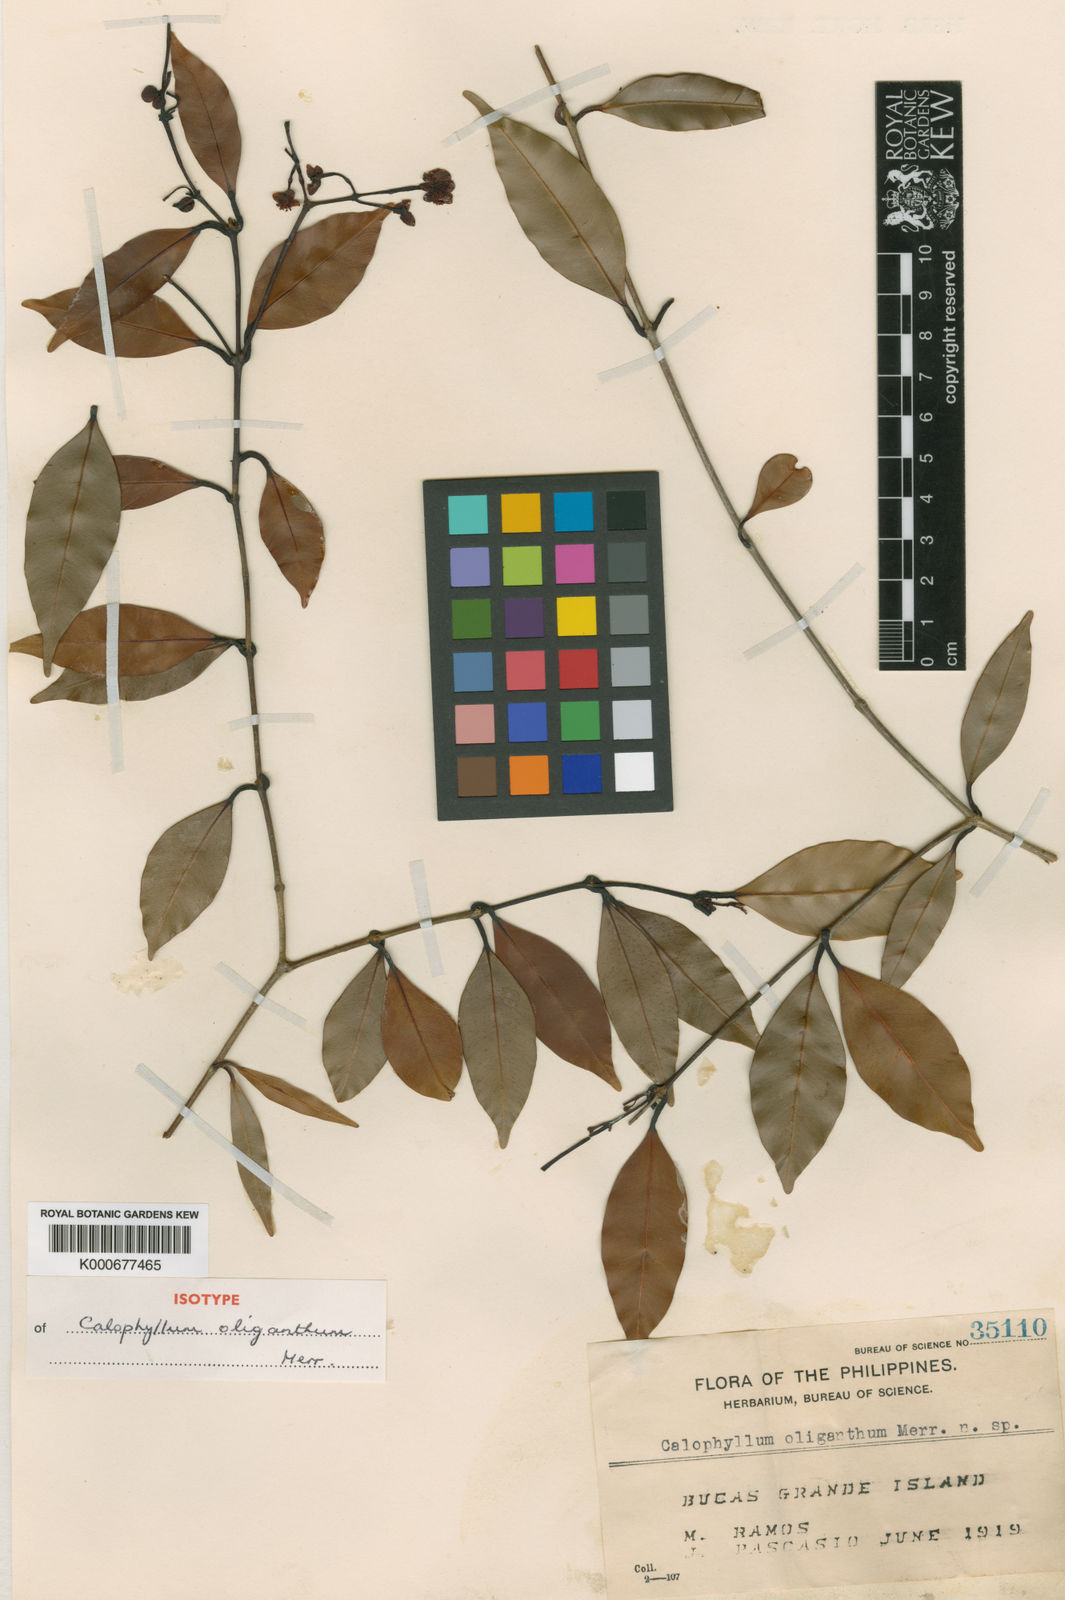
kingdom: Plantae
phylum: Tracheophyta
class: Magnoliopsida
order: Malpighiales
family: Calophyllaceae
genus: Calophyllum
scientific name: Calophyllum oliganthum
